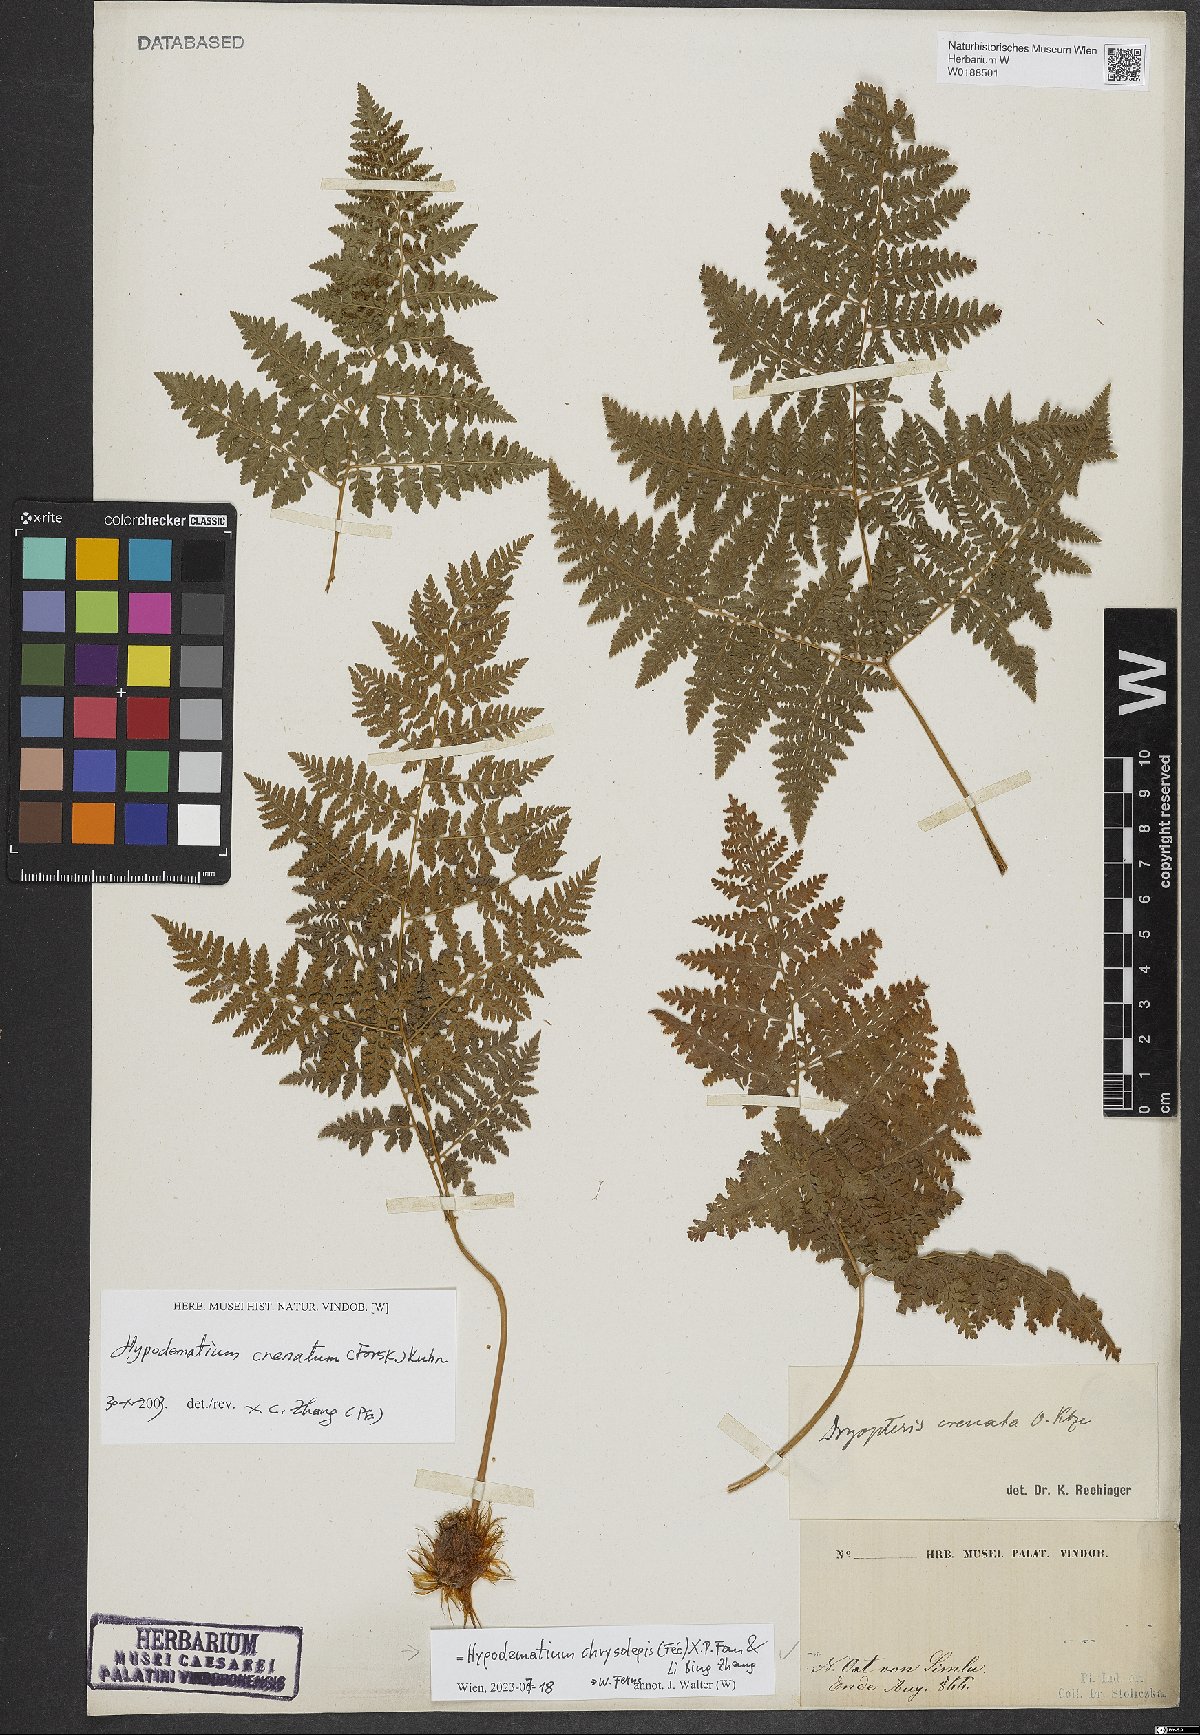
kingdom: Plantae
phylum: Tracheophyta
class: Polypodiopsida
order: Polypodiales
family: Hypodematiaceae
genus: Hypodematium
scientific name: Hypodematium chrysolepis
